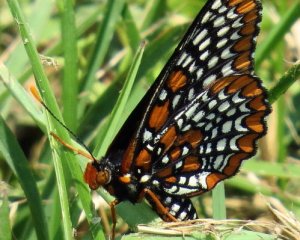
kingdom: Animalia
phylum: Arthropoda
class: Insecta
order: Lepidoptera
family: Nymphalidae
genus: Euphydryas
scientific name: Euphydryas phaeton
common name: Baltimore Checkerspot
